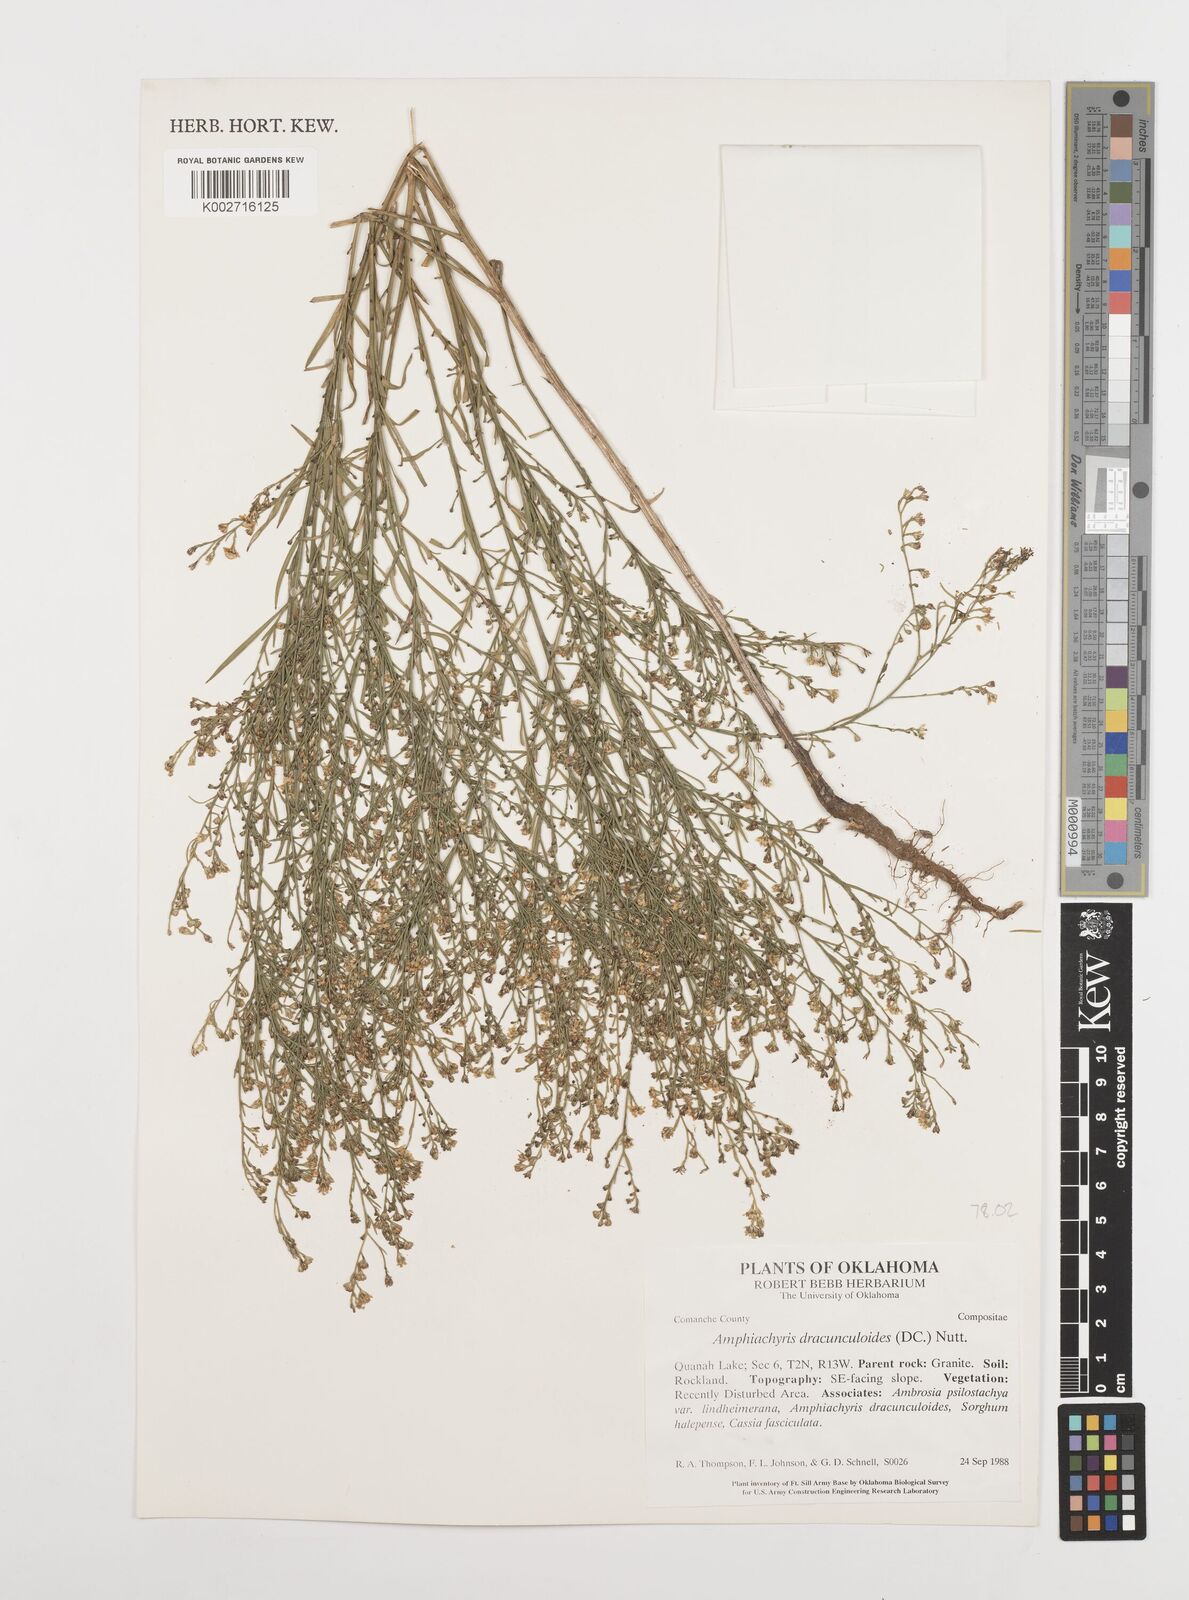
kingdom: Plantae
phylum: Tracheophyta
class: Magnoliopsida
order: Asterales
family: Asteraceae
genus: Amphiachyris
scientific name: Amphiachyris dracunculoides
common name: Broomweed
